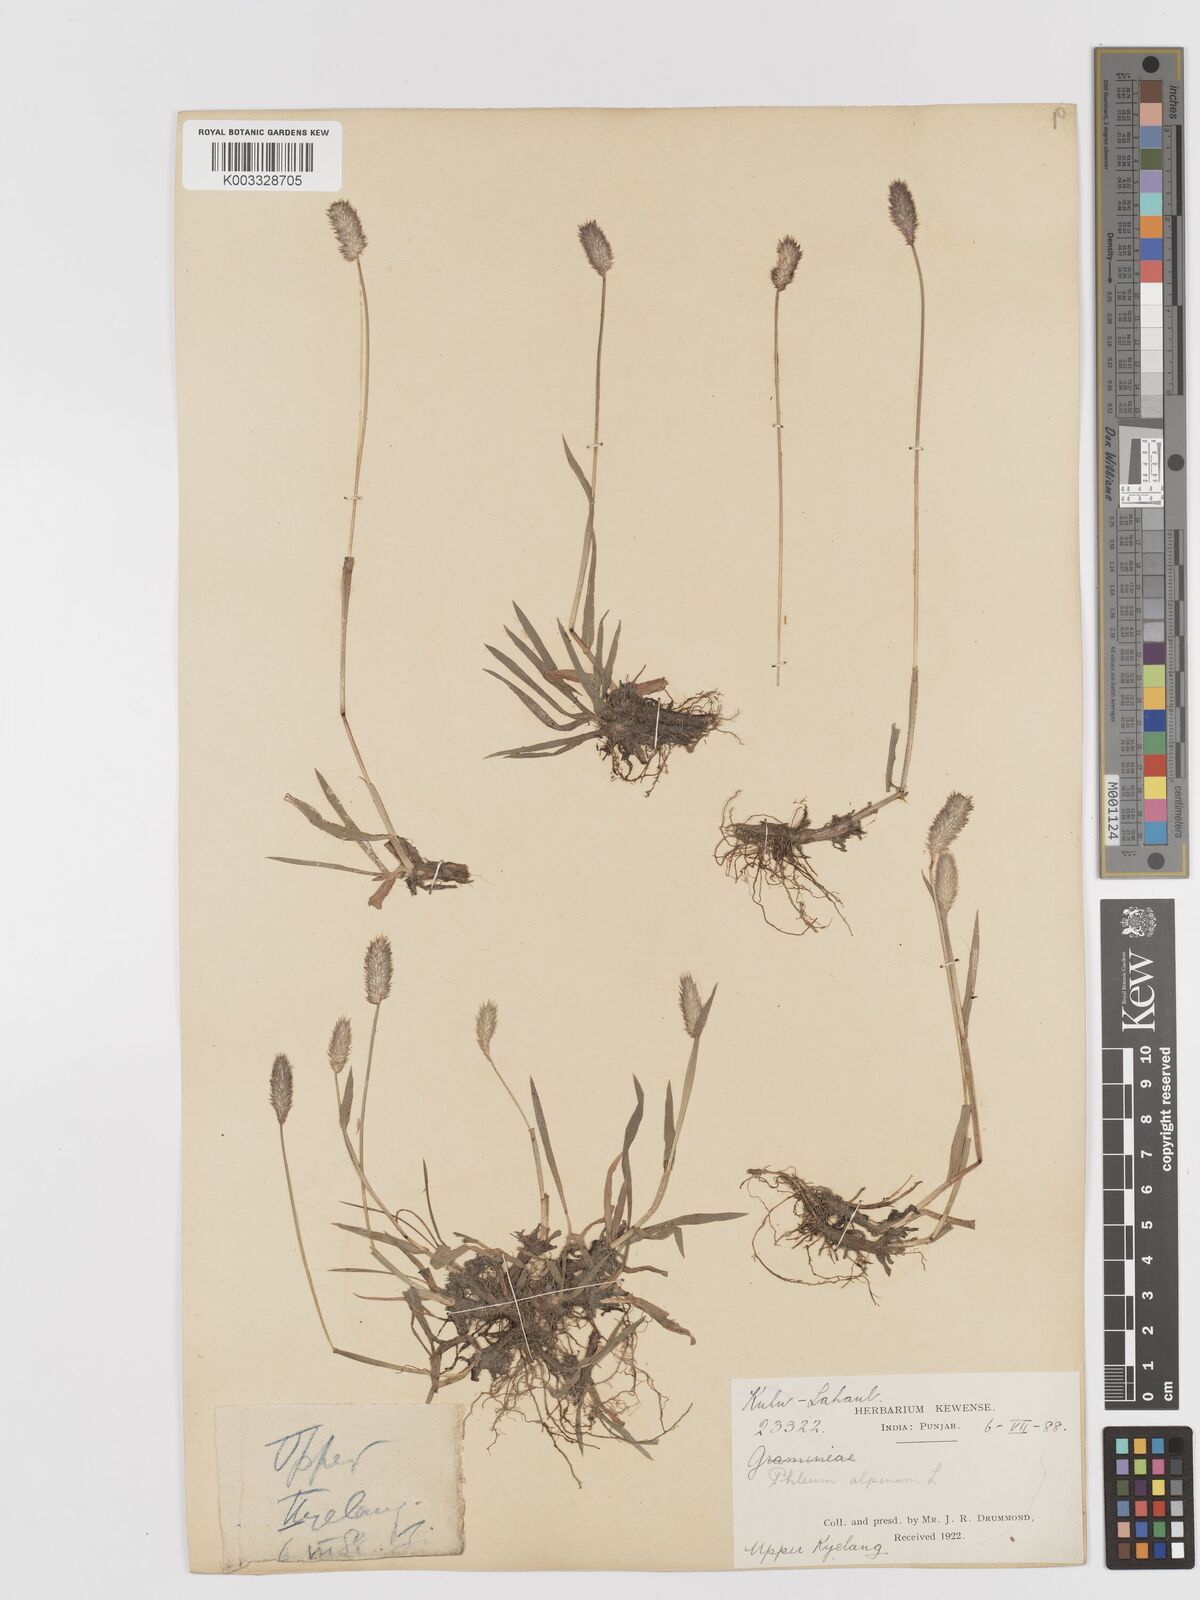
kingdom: Plantae
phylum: Tracheophyta
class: Liliopsida
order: Poales
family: Poaceae
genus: Phleum
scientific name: Phleum alpinum
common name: Alpine cat's-tail
